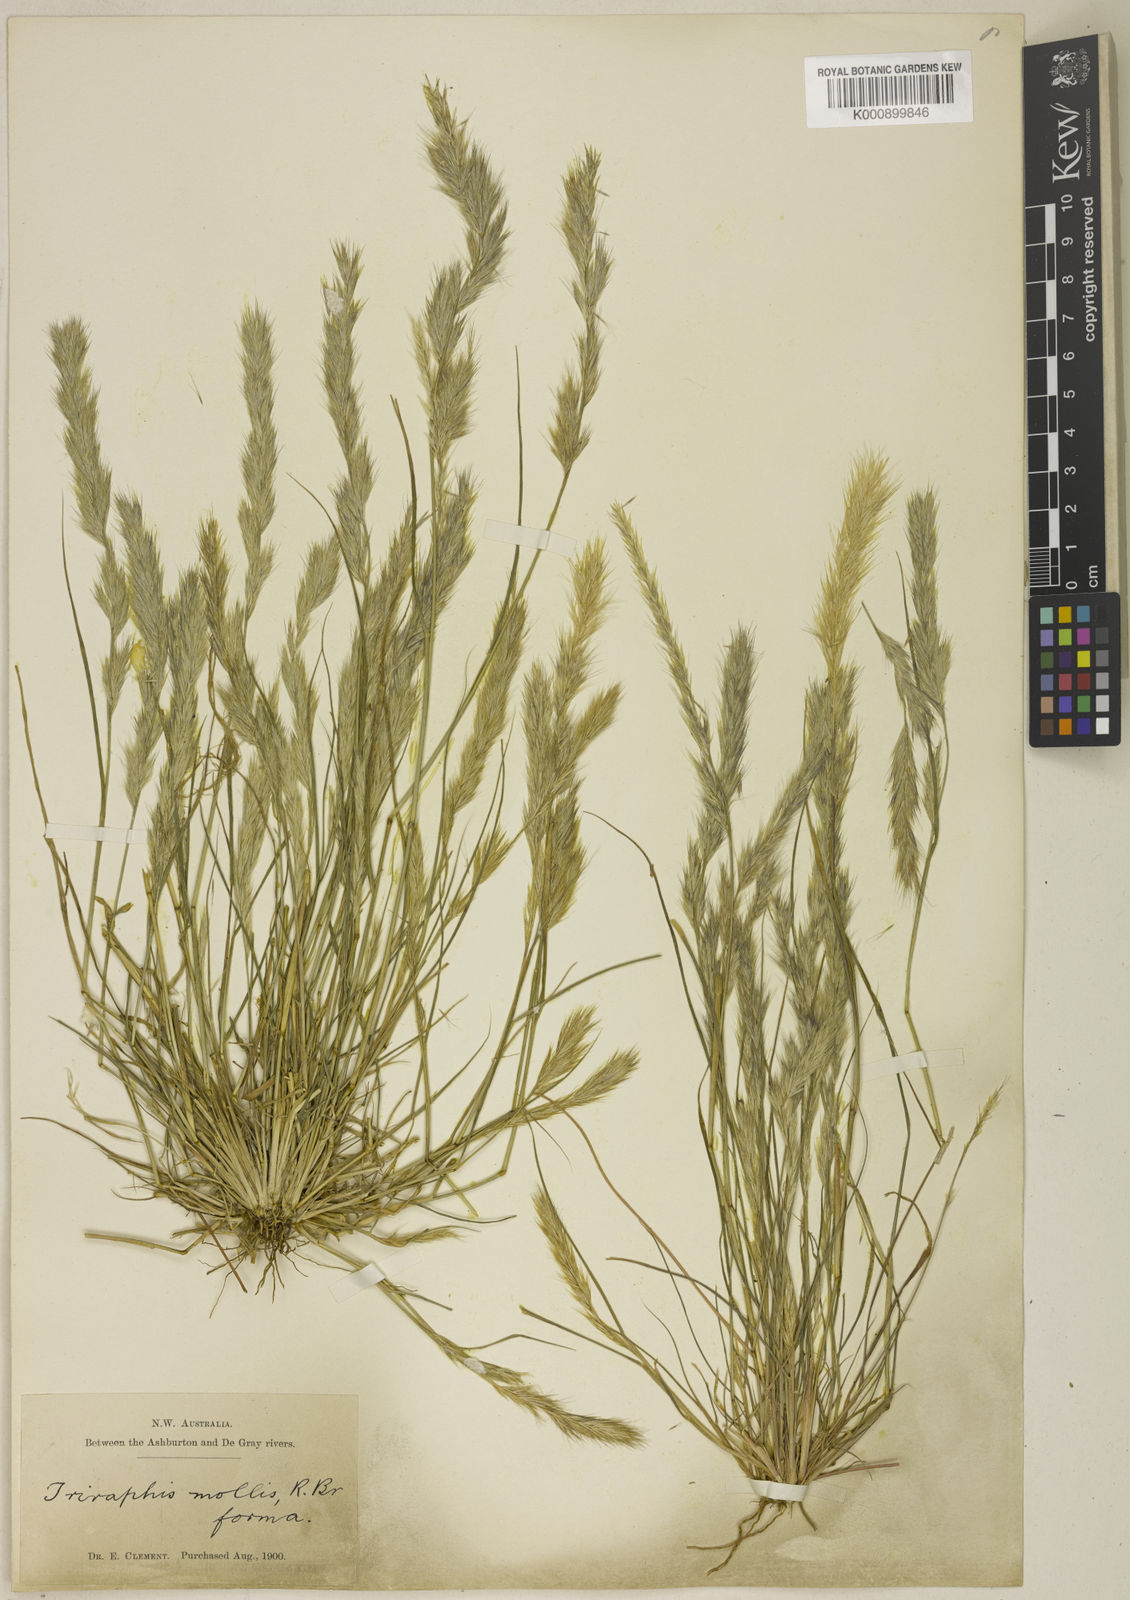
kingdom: Plantae
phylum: Tracheophyta
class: Liliopsida
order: Poales
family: Poaceae
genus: Triraphis
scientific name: Triraphis mollis
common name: Purple needlegrass
